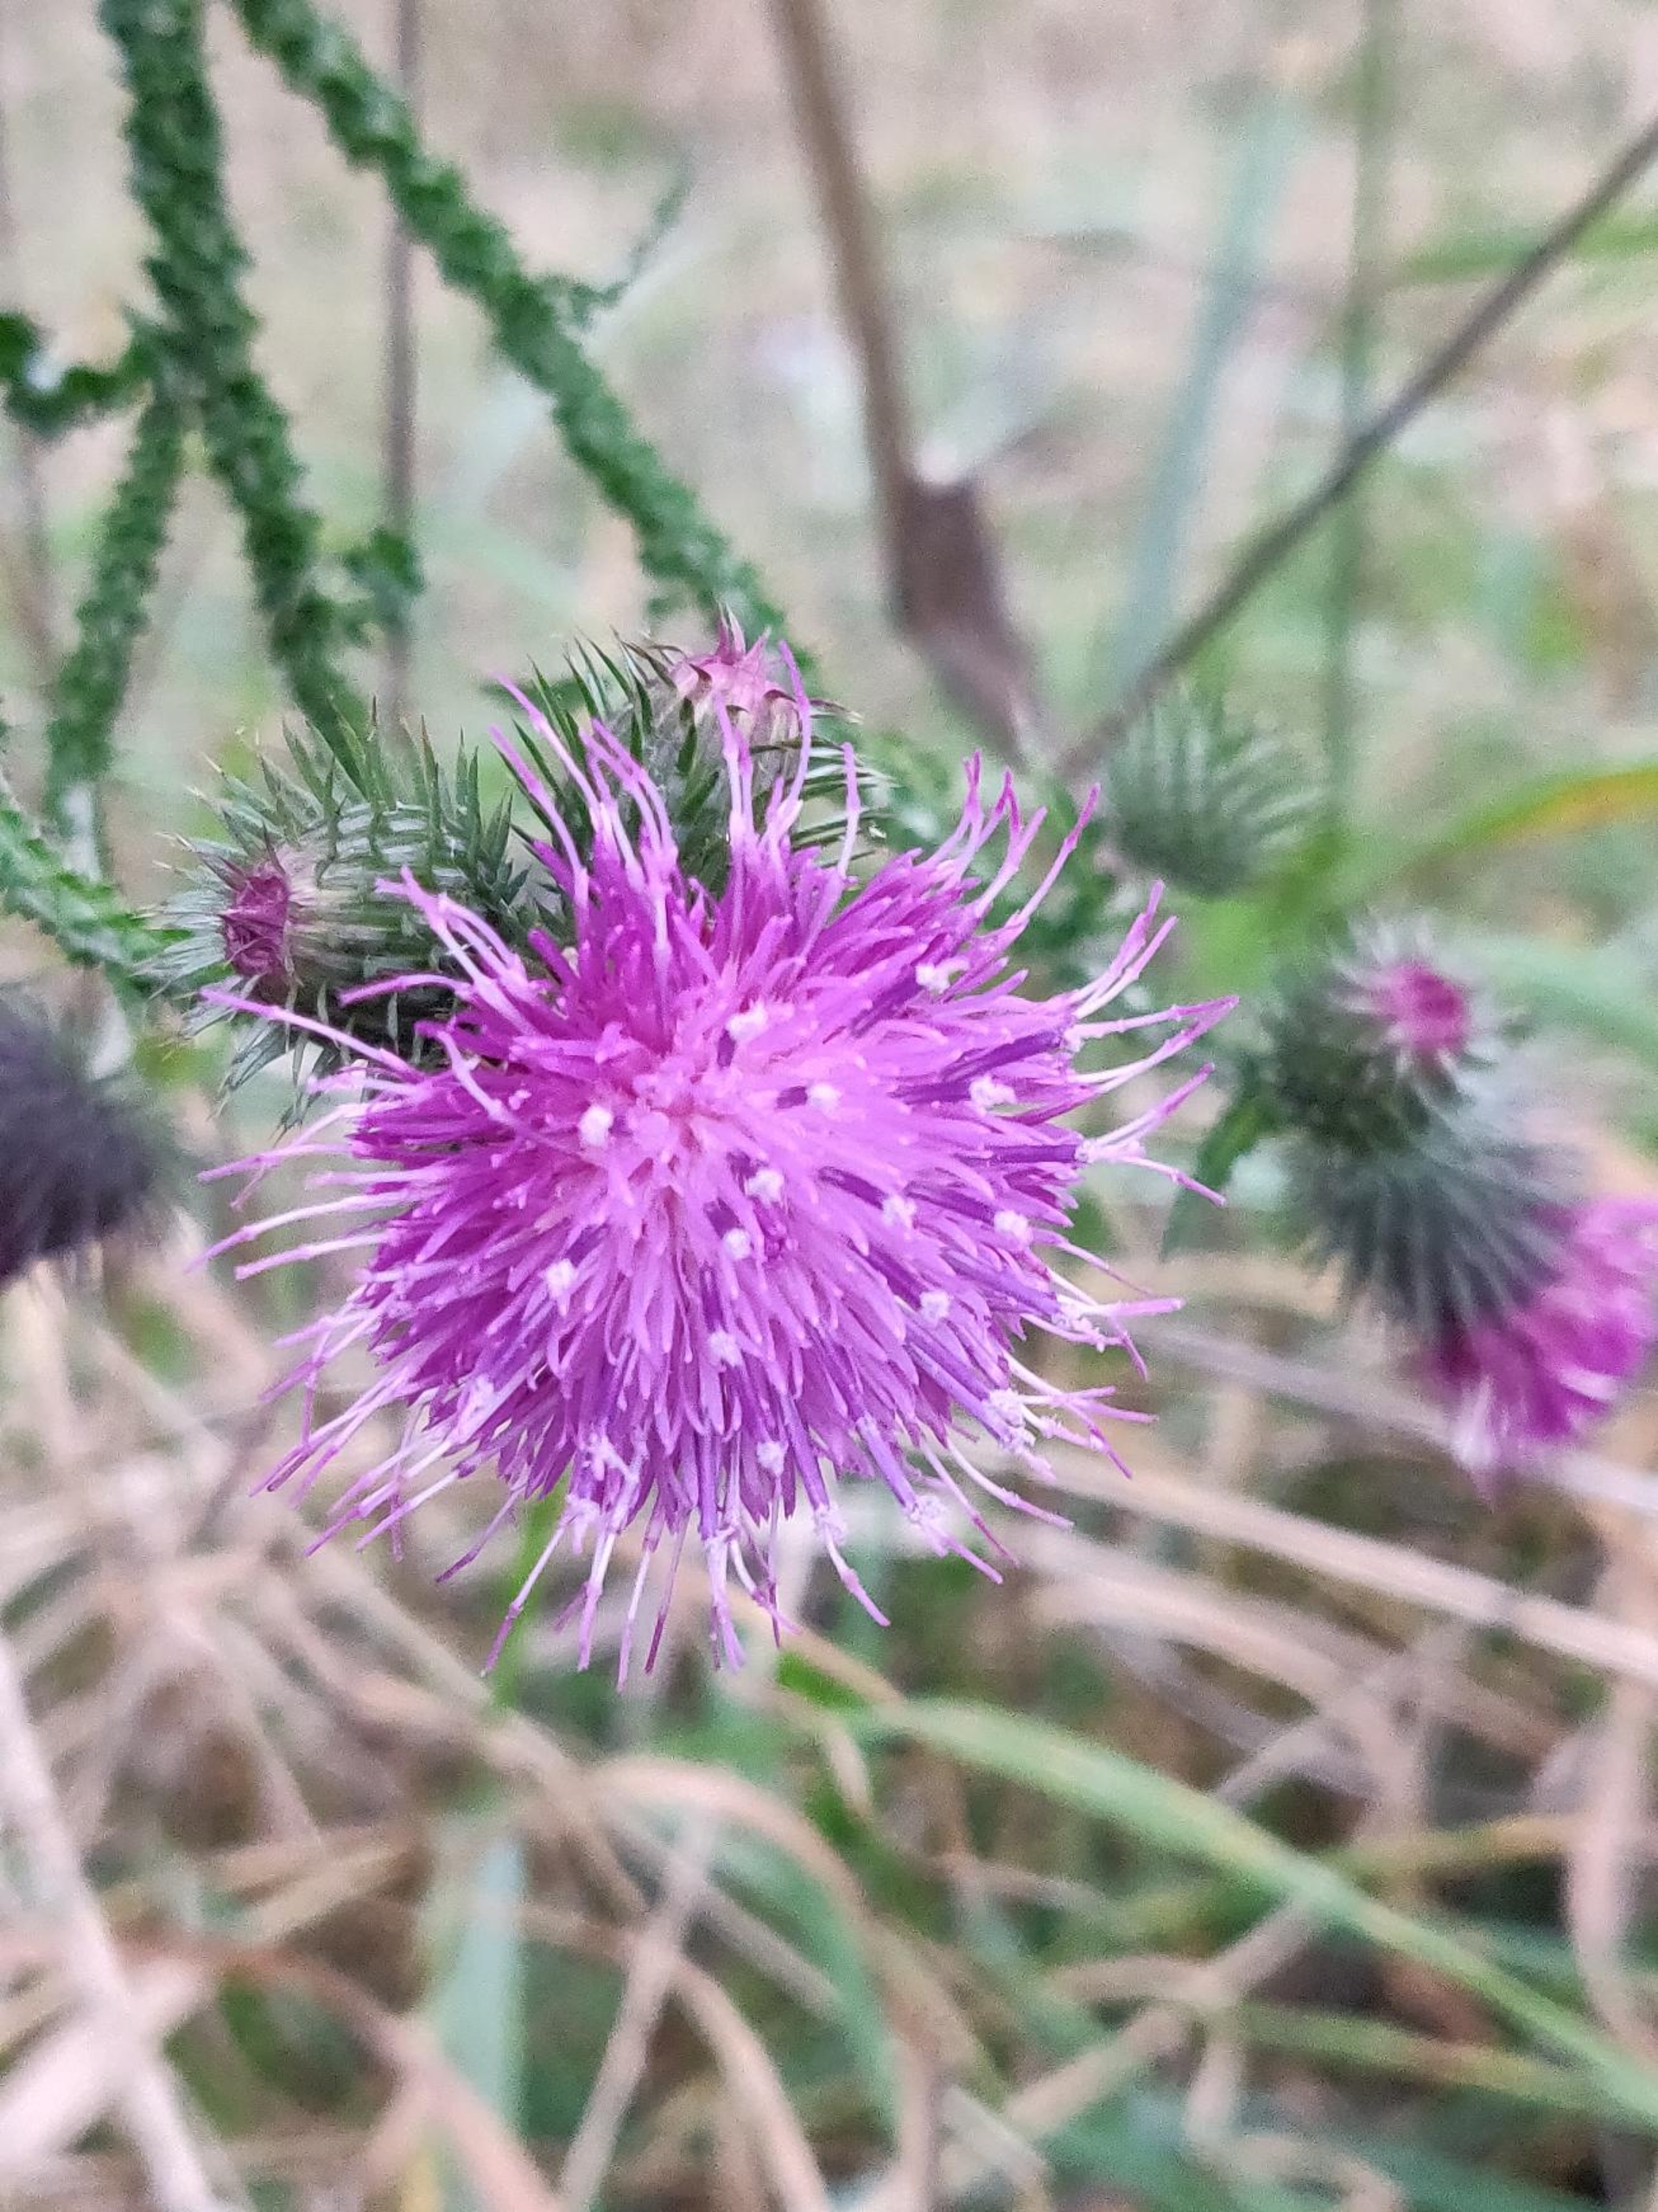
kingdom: Plantae
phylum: Tracheophyta
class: Magnoliopsida
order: Asterales
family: Asteraceae
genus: Carduus
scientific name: Carduus crispus
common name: Kruset tidsel
